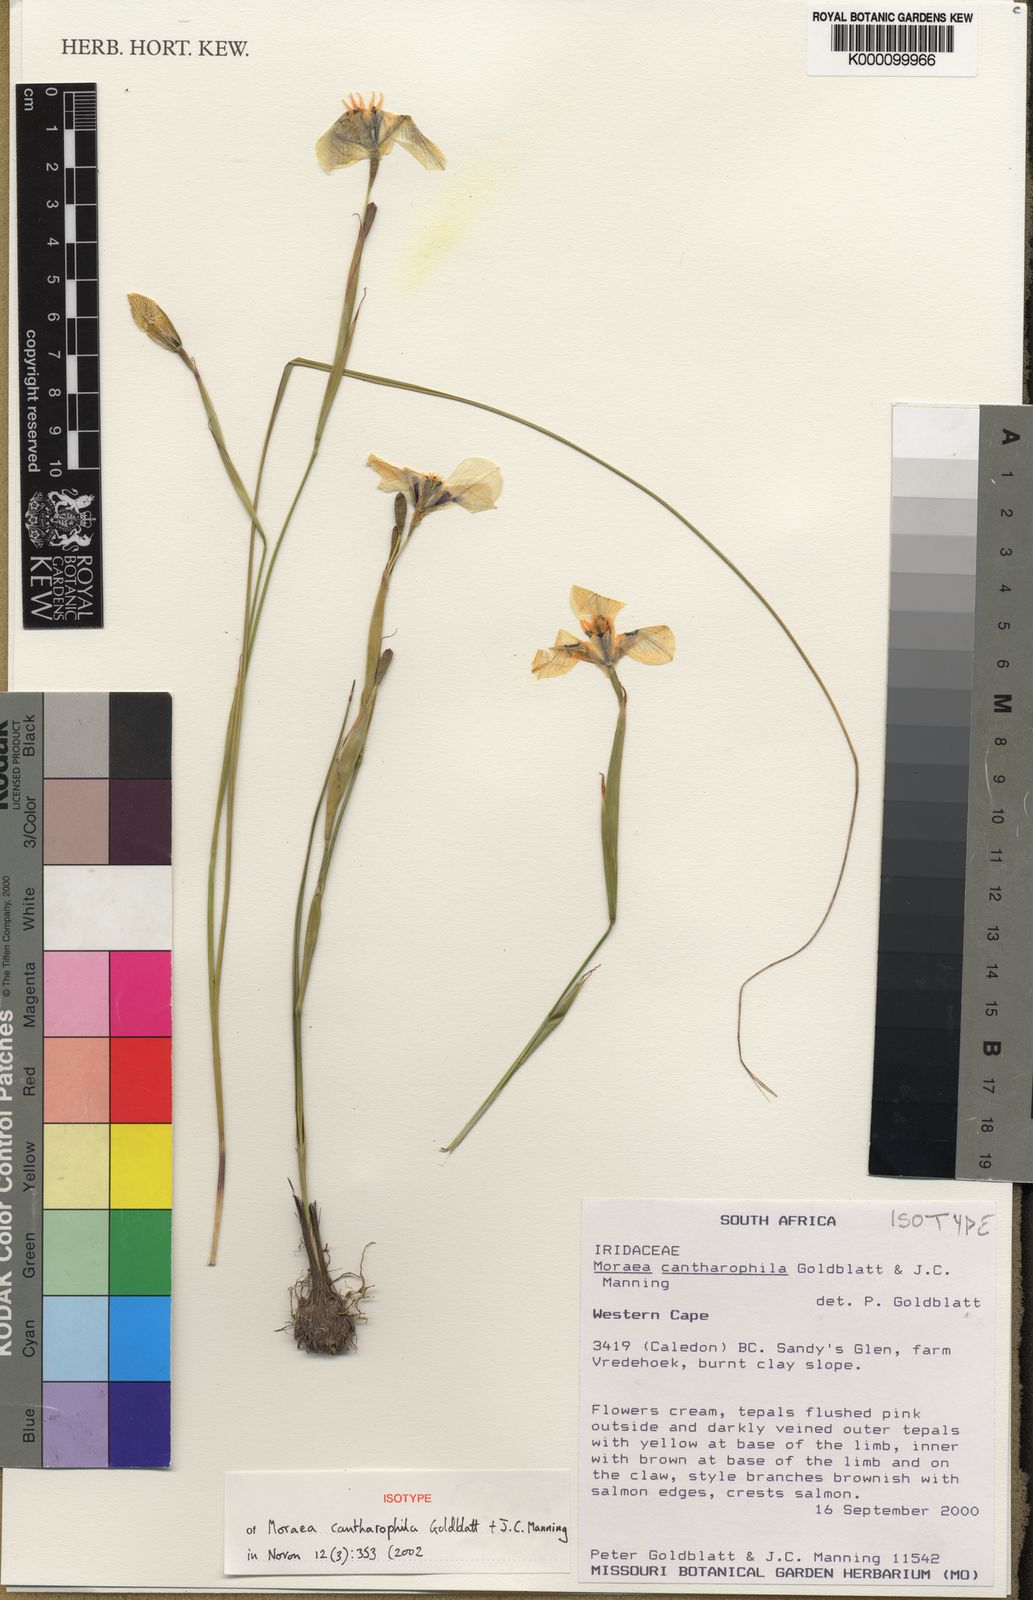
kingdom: Plantae
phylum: Tracheophyta
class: Liliopsida
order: Asparagales
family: Iridaceae
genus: Moraea
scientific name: Moraea cantharophila
